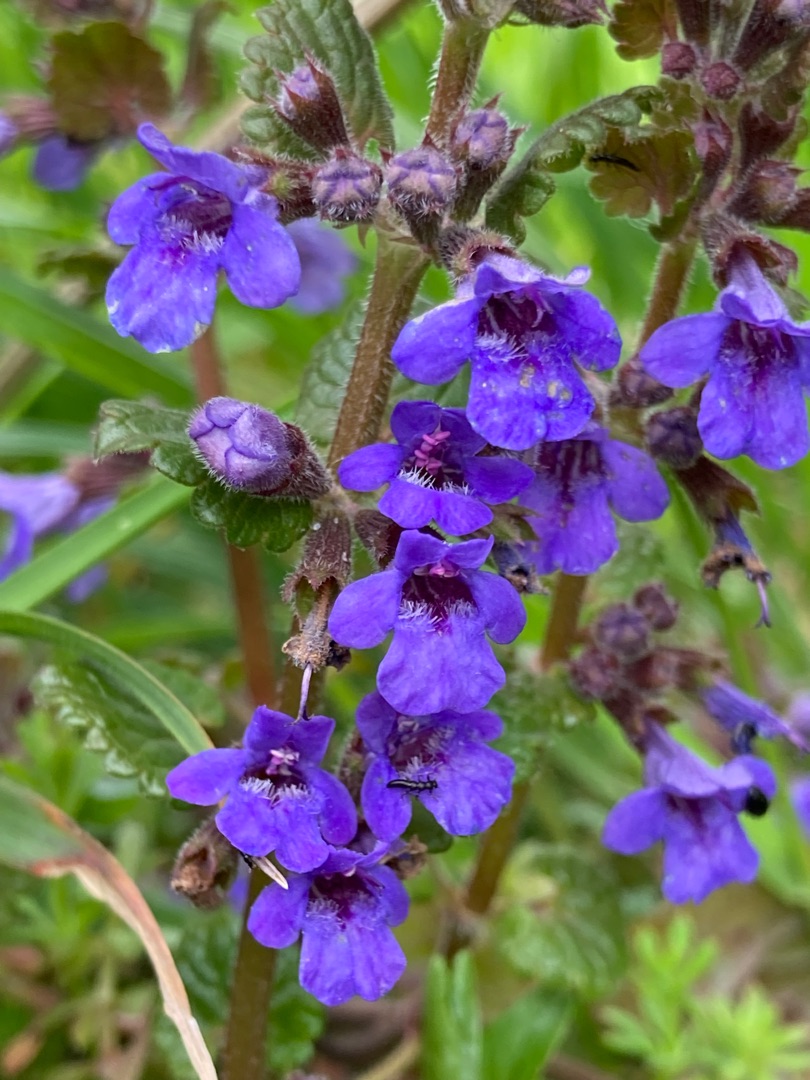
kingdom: Plantae
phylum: Tracheophyta
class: Magnoliopsida
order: Lamiales
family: Lamiaceae
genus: Glechoma
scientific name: Glechoma hederacea
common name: Korsknap
